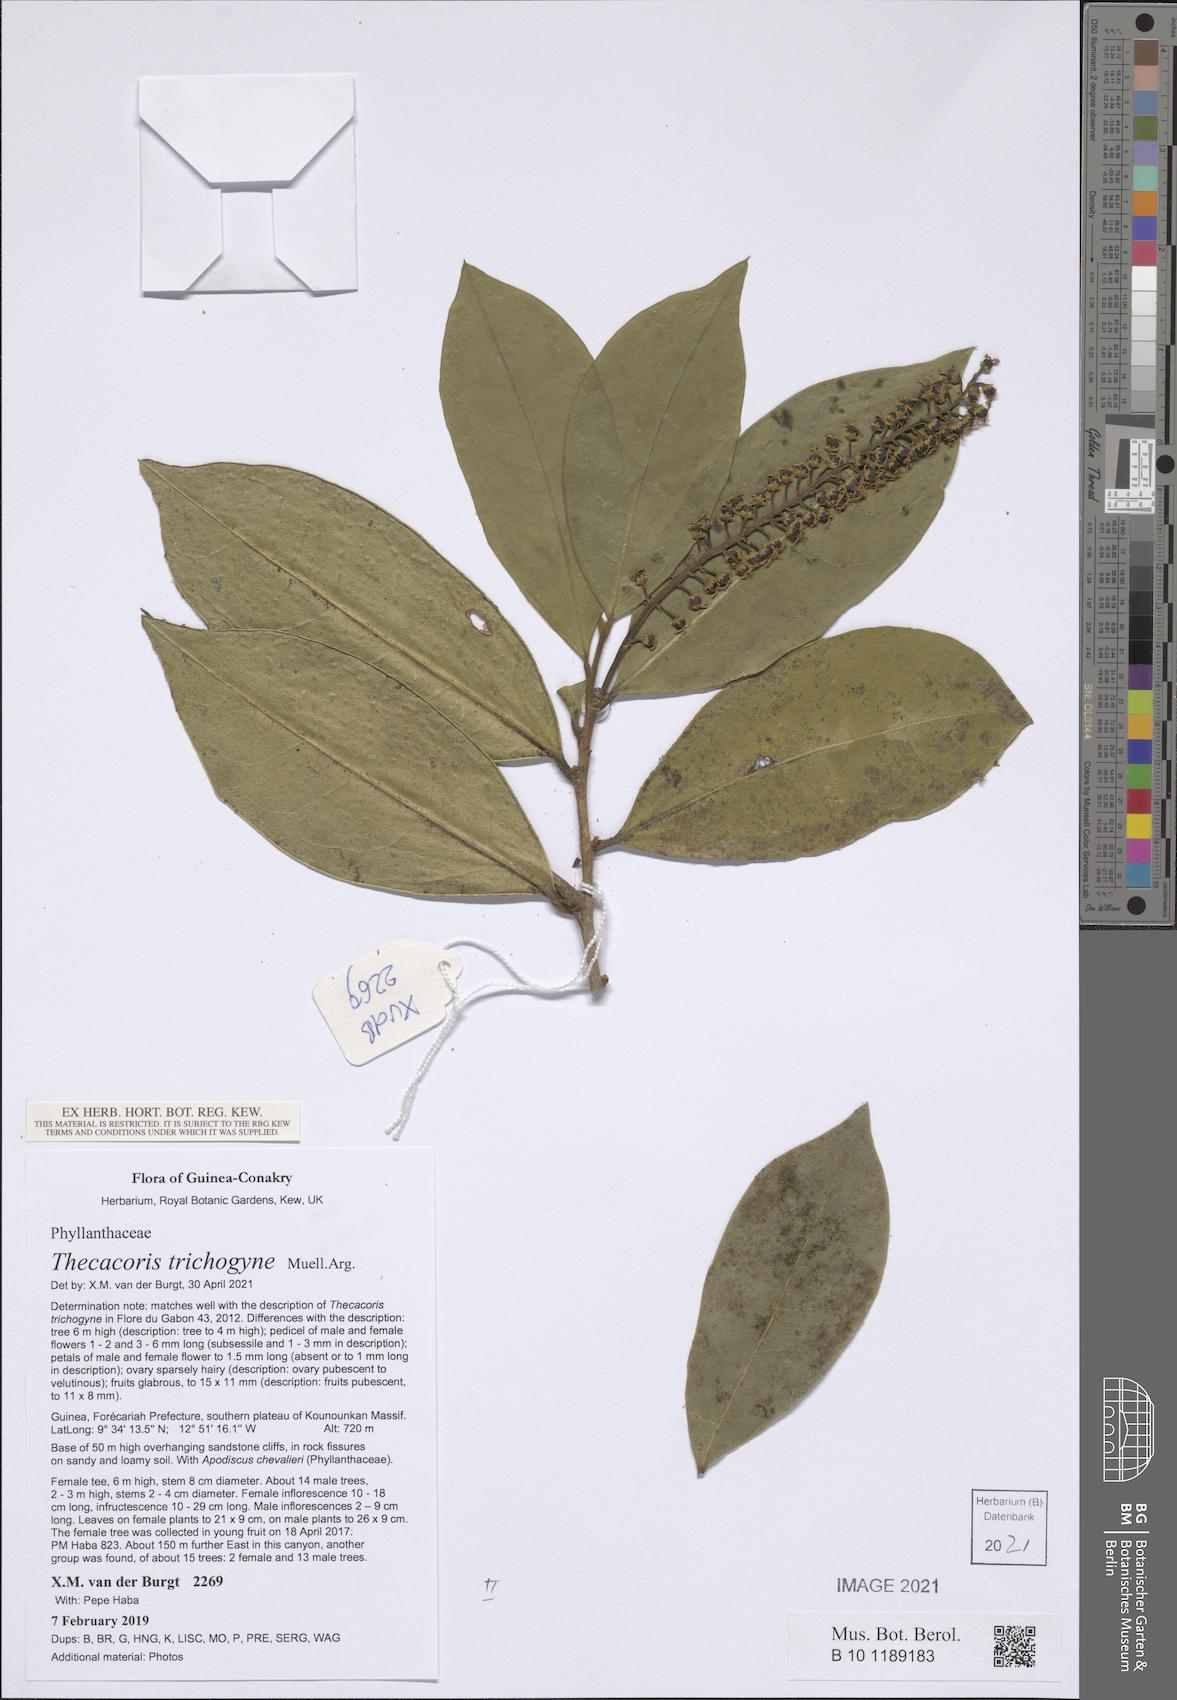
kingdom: Plantae
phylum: Tracheophyta
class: Magnoliopsida
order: Malpighiales
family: Phyllanthaceae
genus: Thecacoris
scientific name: Thecacoris trichogyne
